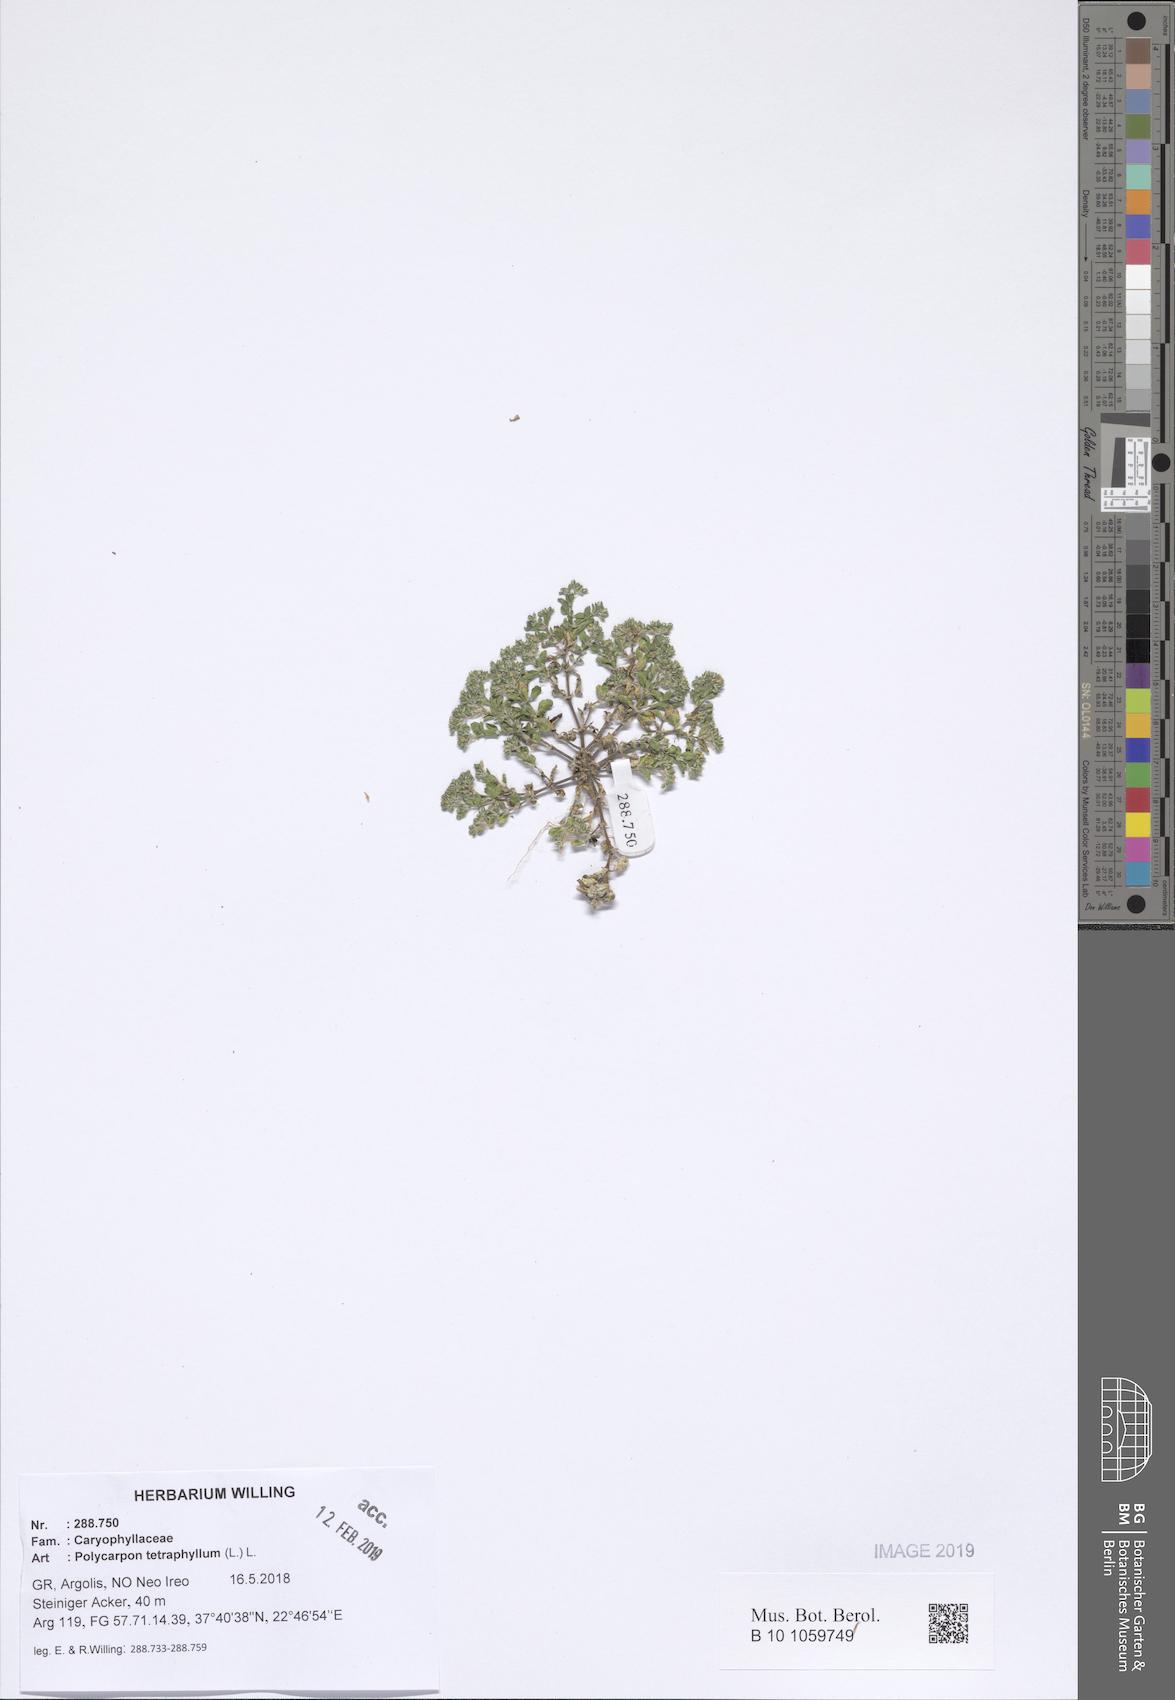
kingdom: Plantae
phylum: Tracheophyta
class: Magnoliopsida
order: Caryophyllales
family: Caryophyllaceae
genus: Polycarpon
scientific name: Polycarpon tetraphyllum
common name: Four-leaved all-seed
